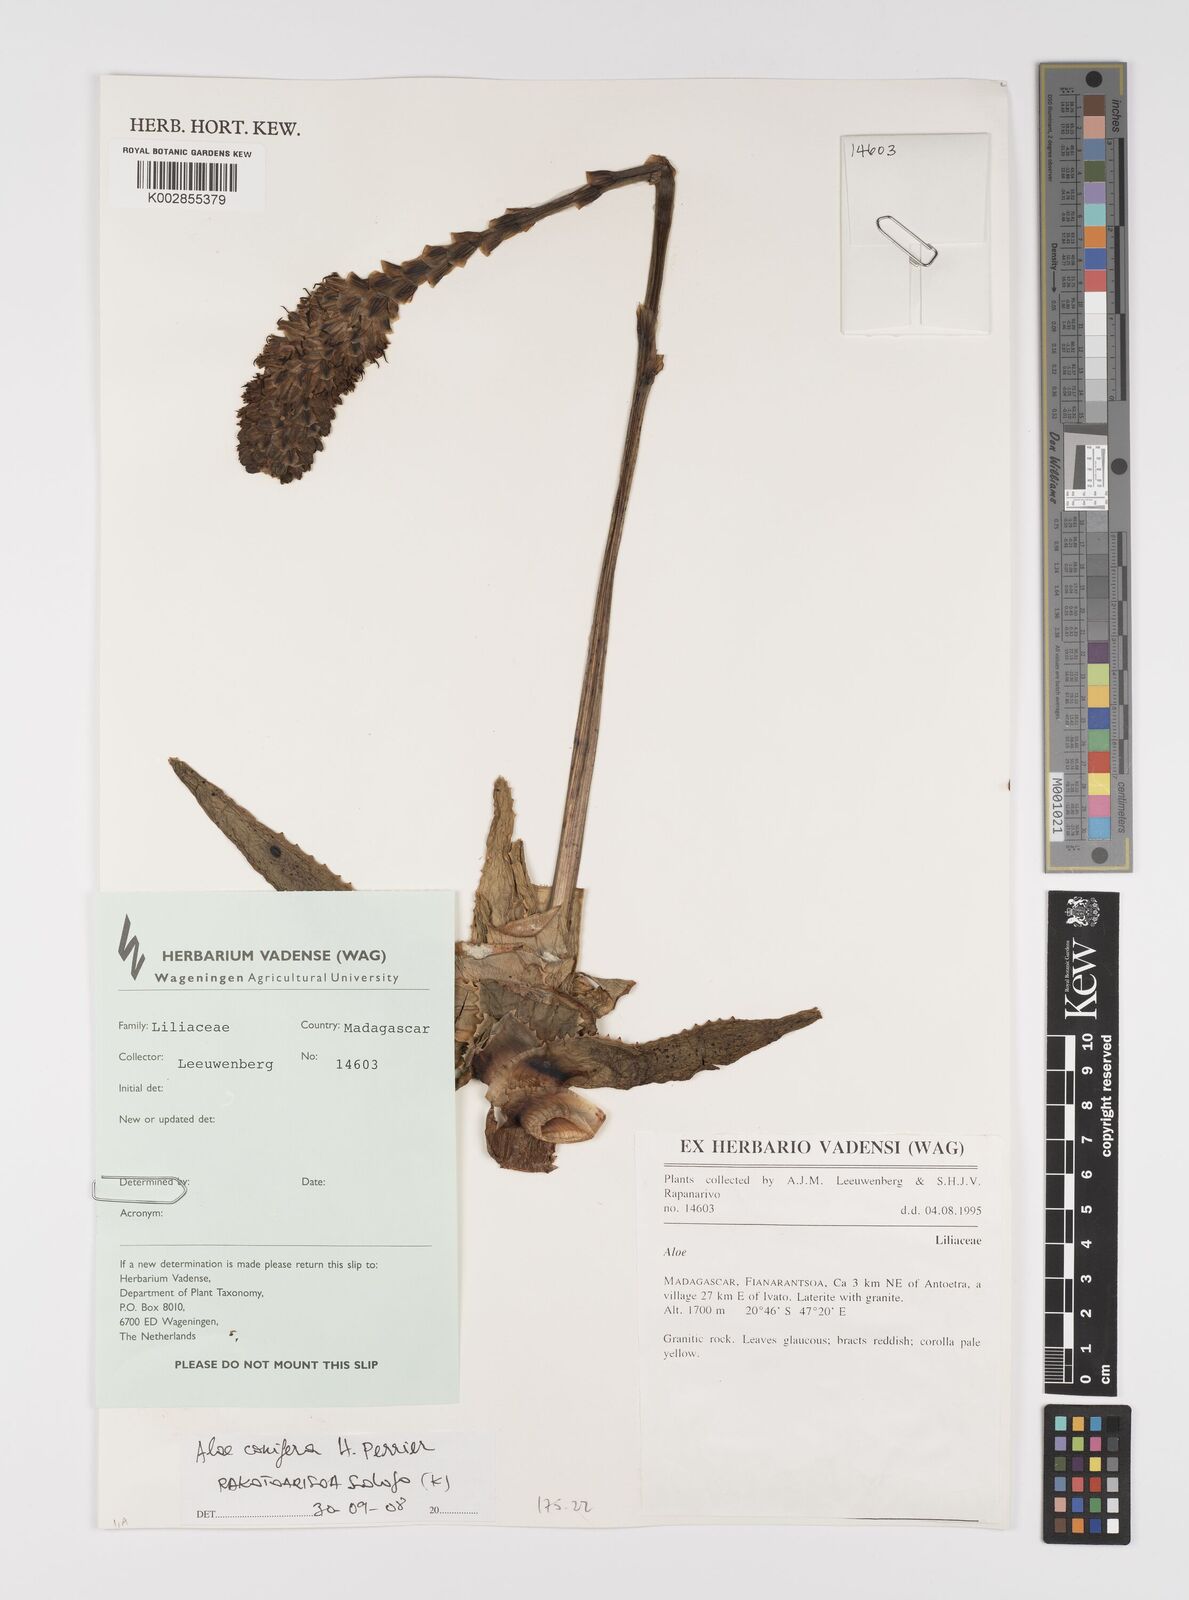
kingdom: Plantae
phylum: Tracheophyta
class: Liliopsida
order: Asparagales
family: Asphodelaceae
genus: Aloe
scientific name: Aloe conifera
